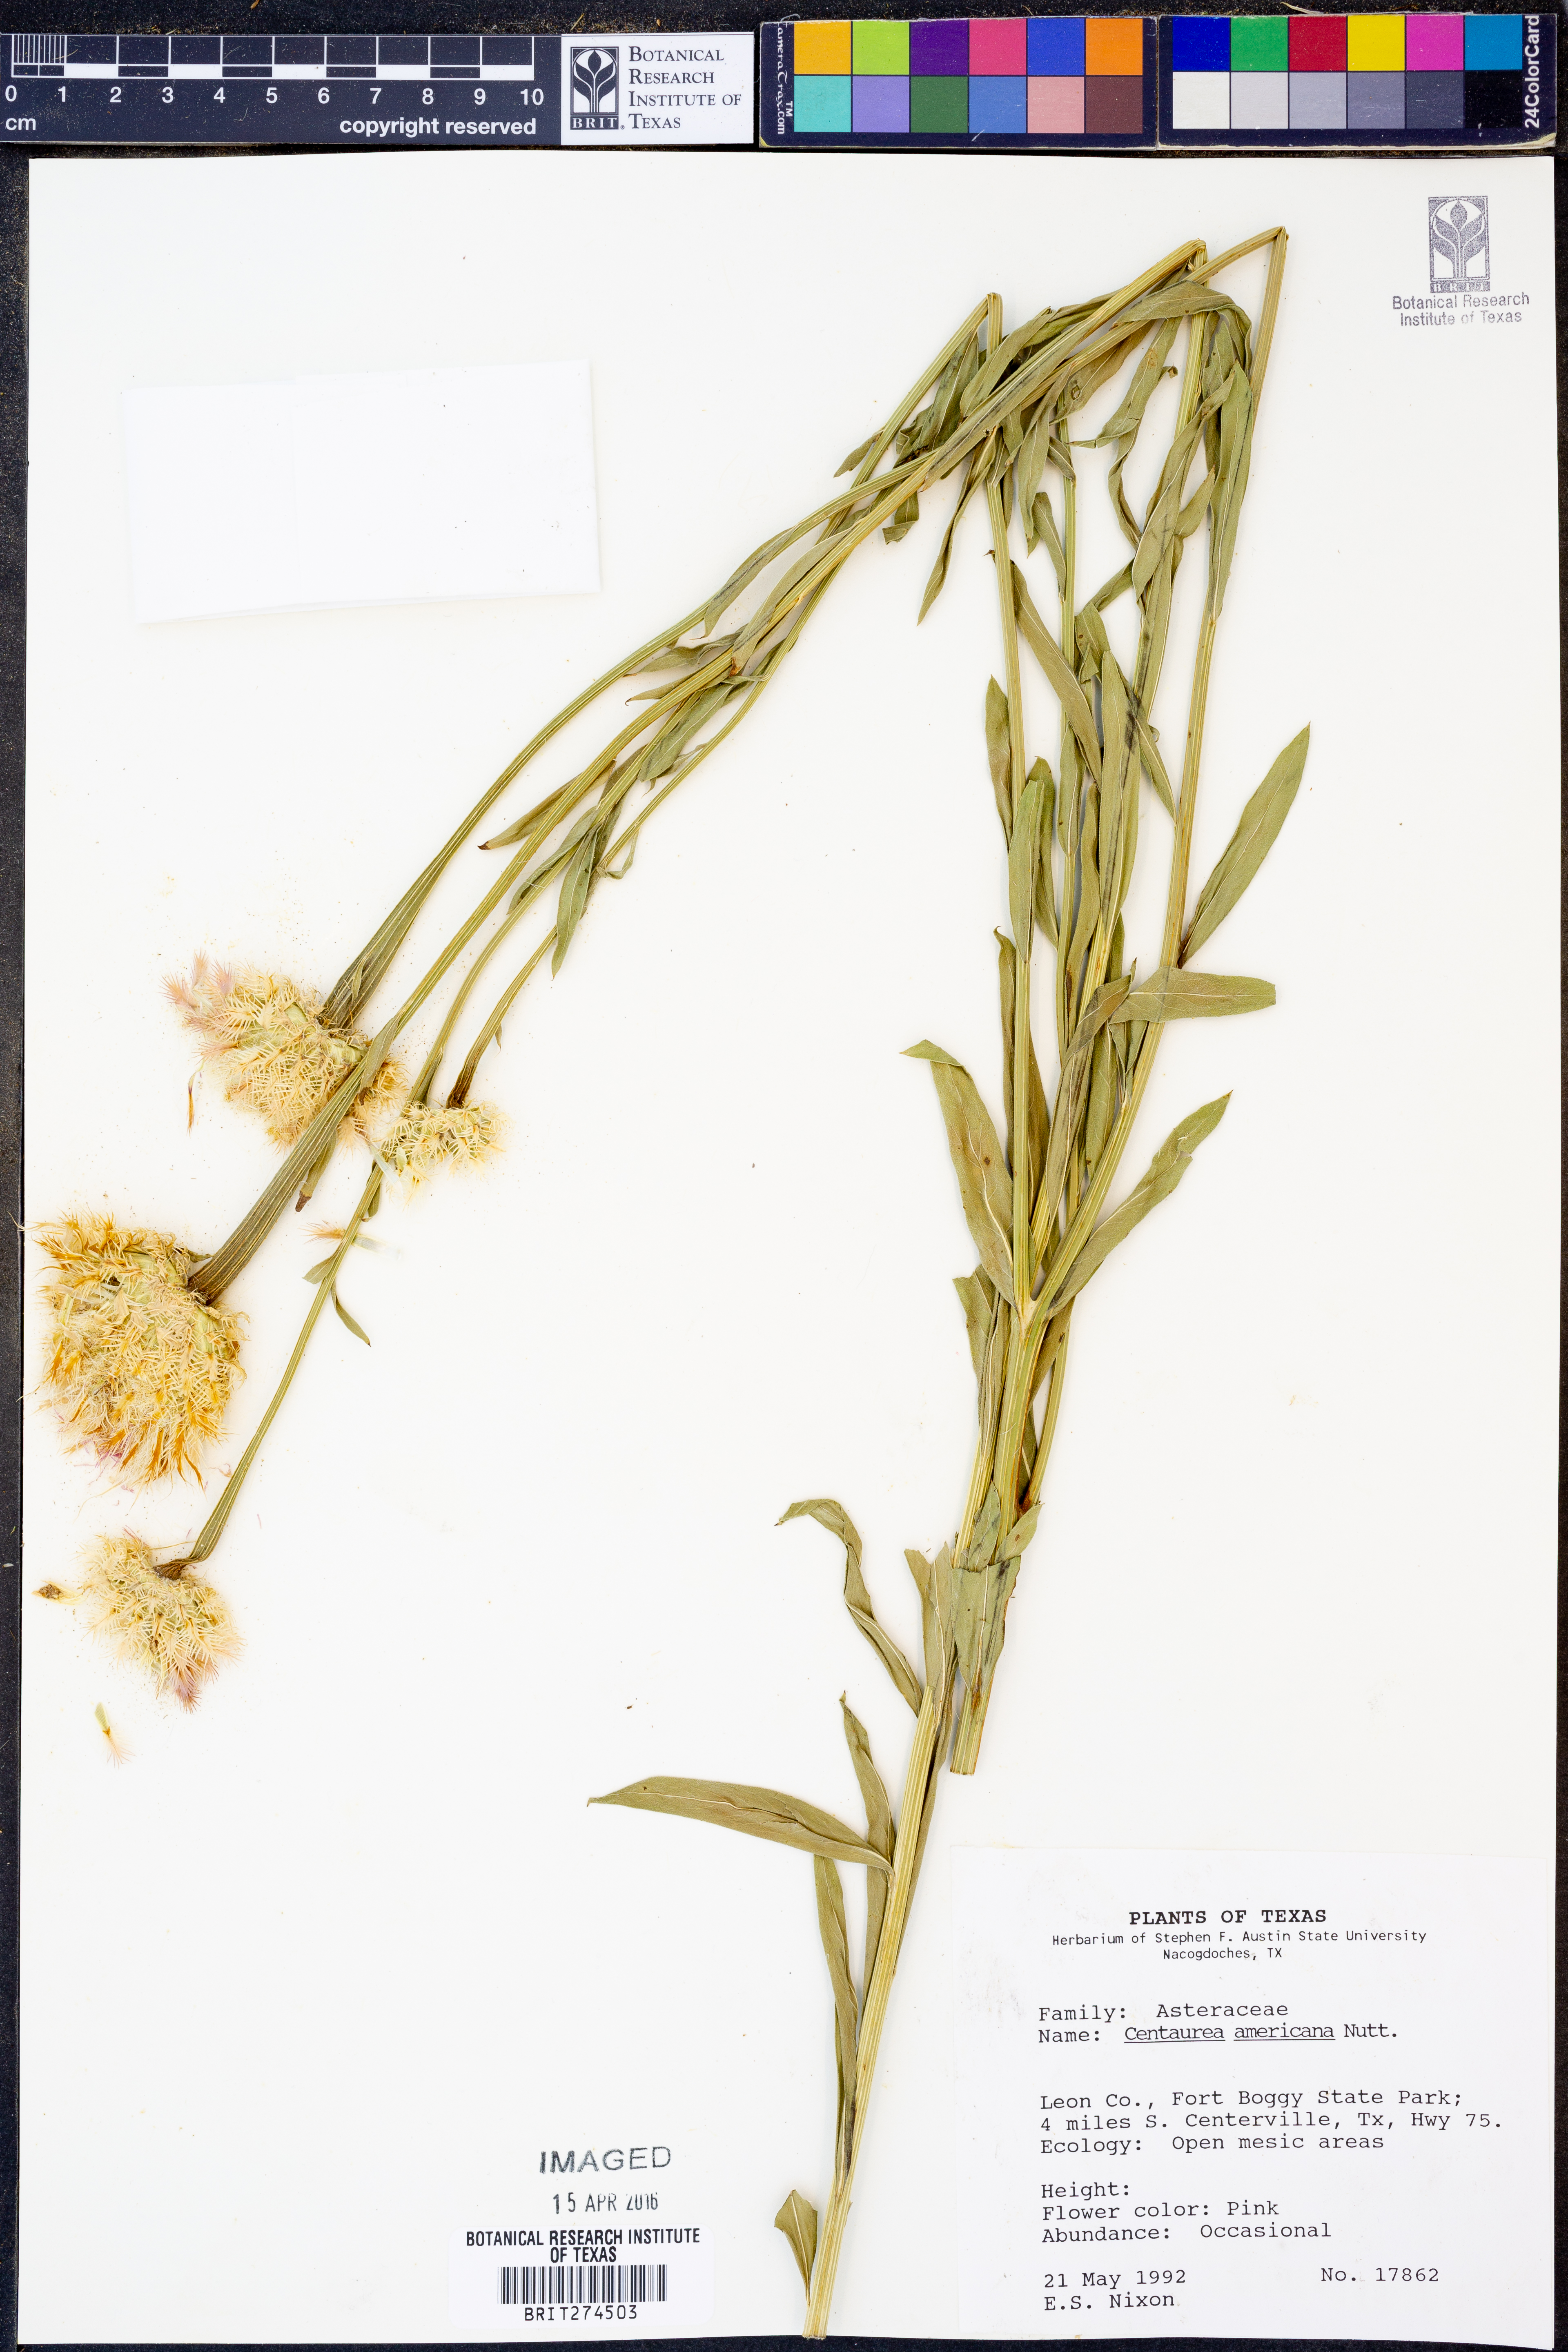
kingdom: Plantae
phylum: Tracheophyta
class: Magnoliopsida
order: Asterales
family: Asteraceae
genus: Plectocephalus
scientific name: Plectocephalus americanus
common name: American basket-flower
